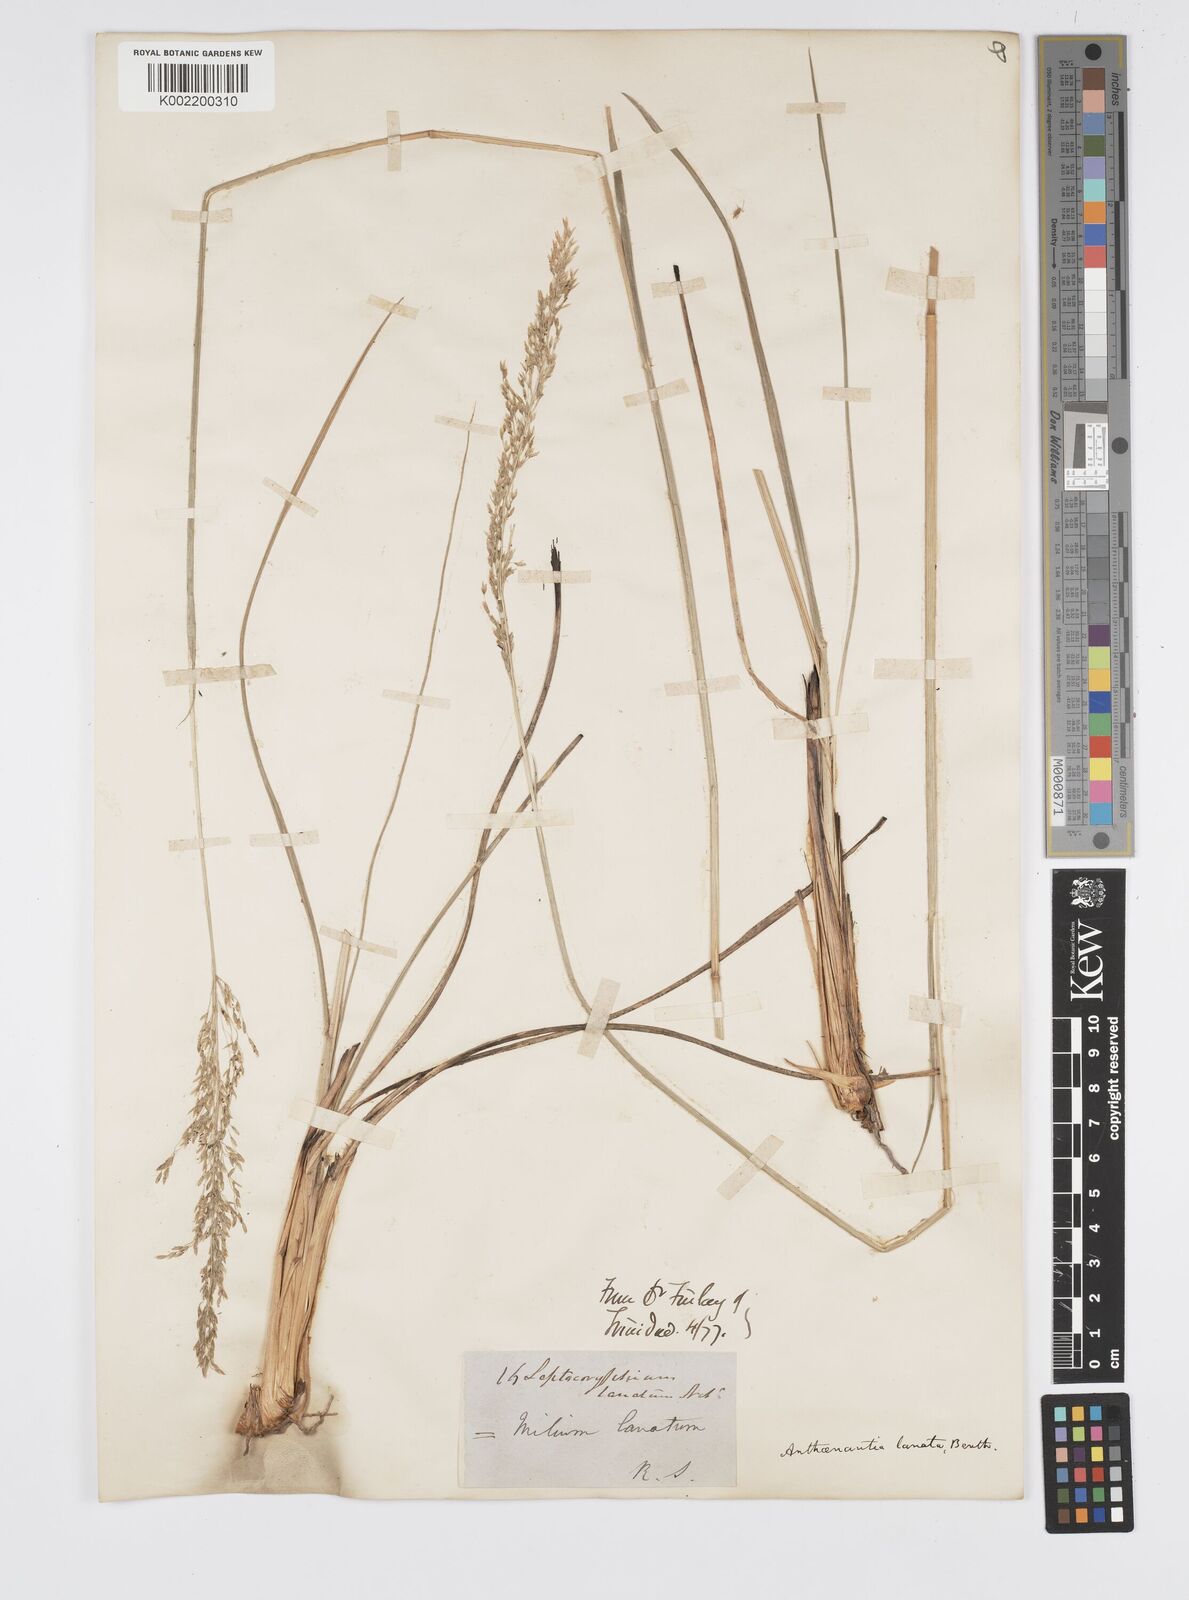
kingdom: Plantae
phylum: Tracheophyta
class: Liliopsida
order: Poales
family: Poaceae
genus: Anthenantia
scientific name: Anthenantia lanata
